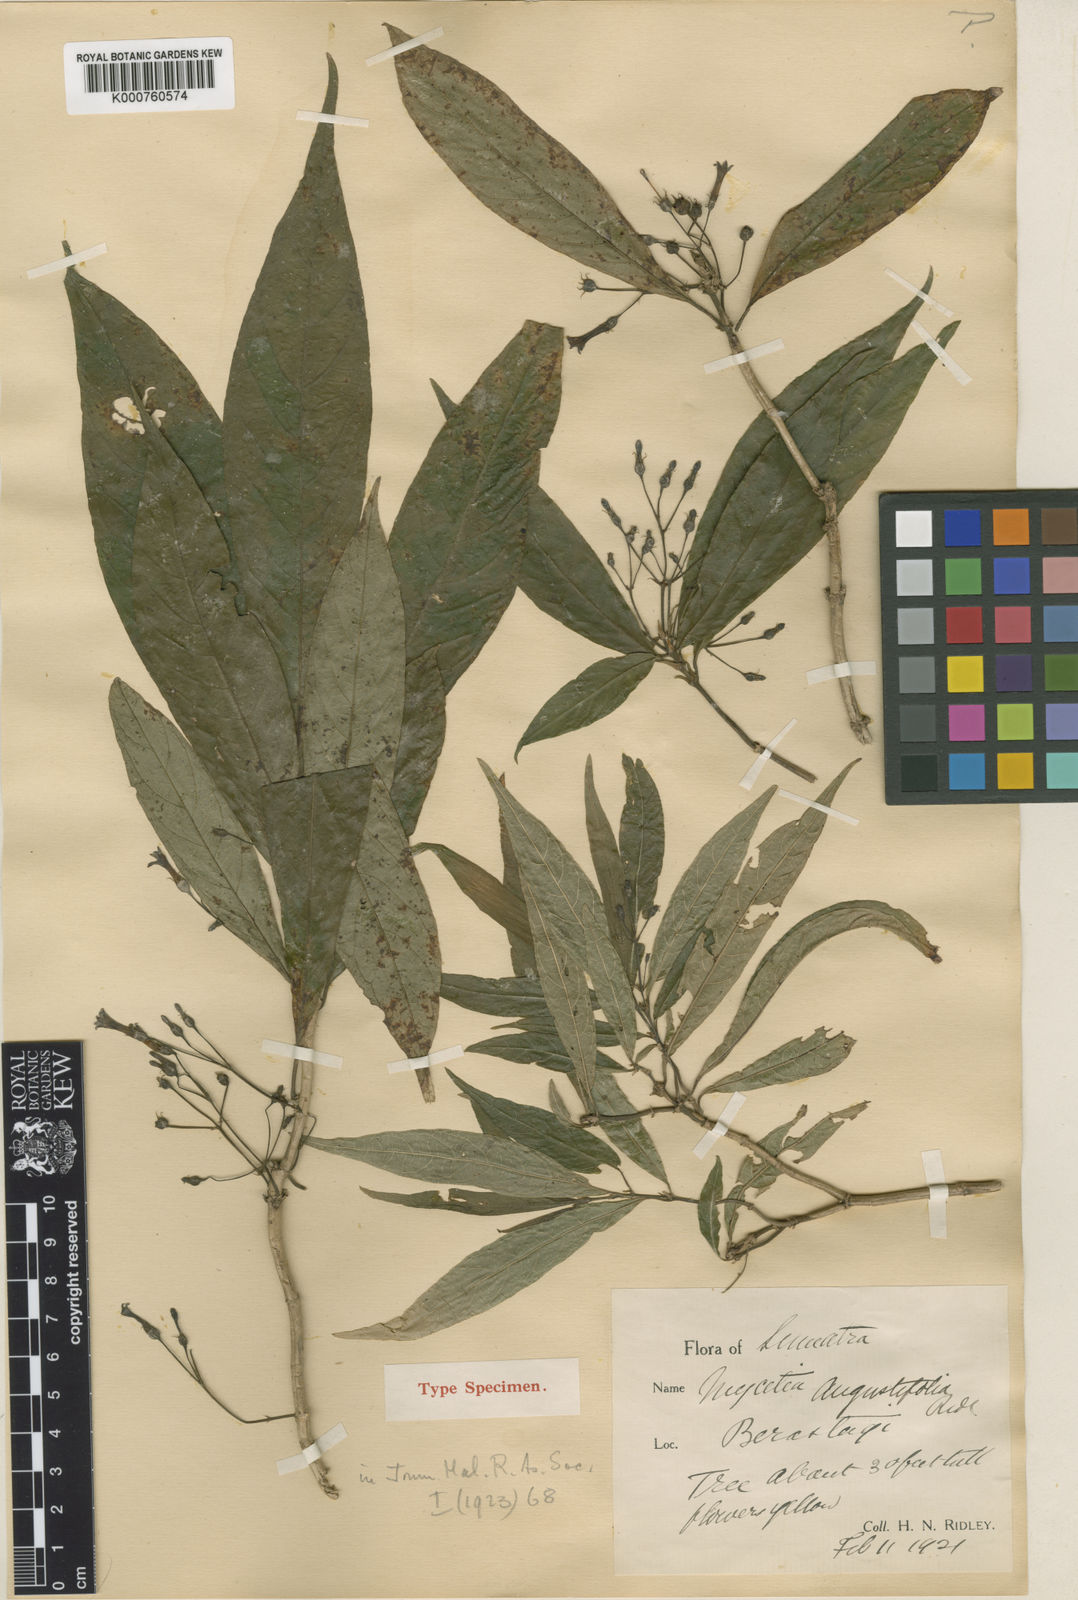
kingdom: Plantae
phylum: Tracheophyta
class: Magnoliopsida
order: Gentianales
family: Rubiaceae
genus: Mycetia
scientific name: Mycetia cauliflora
